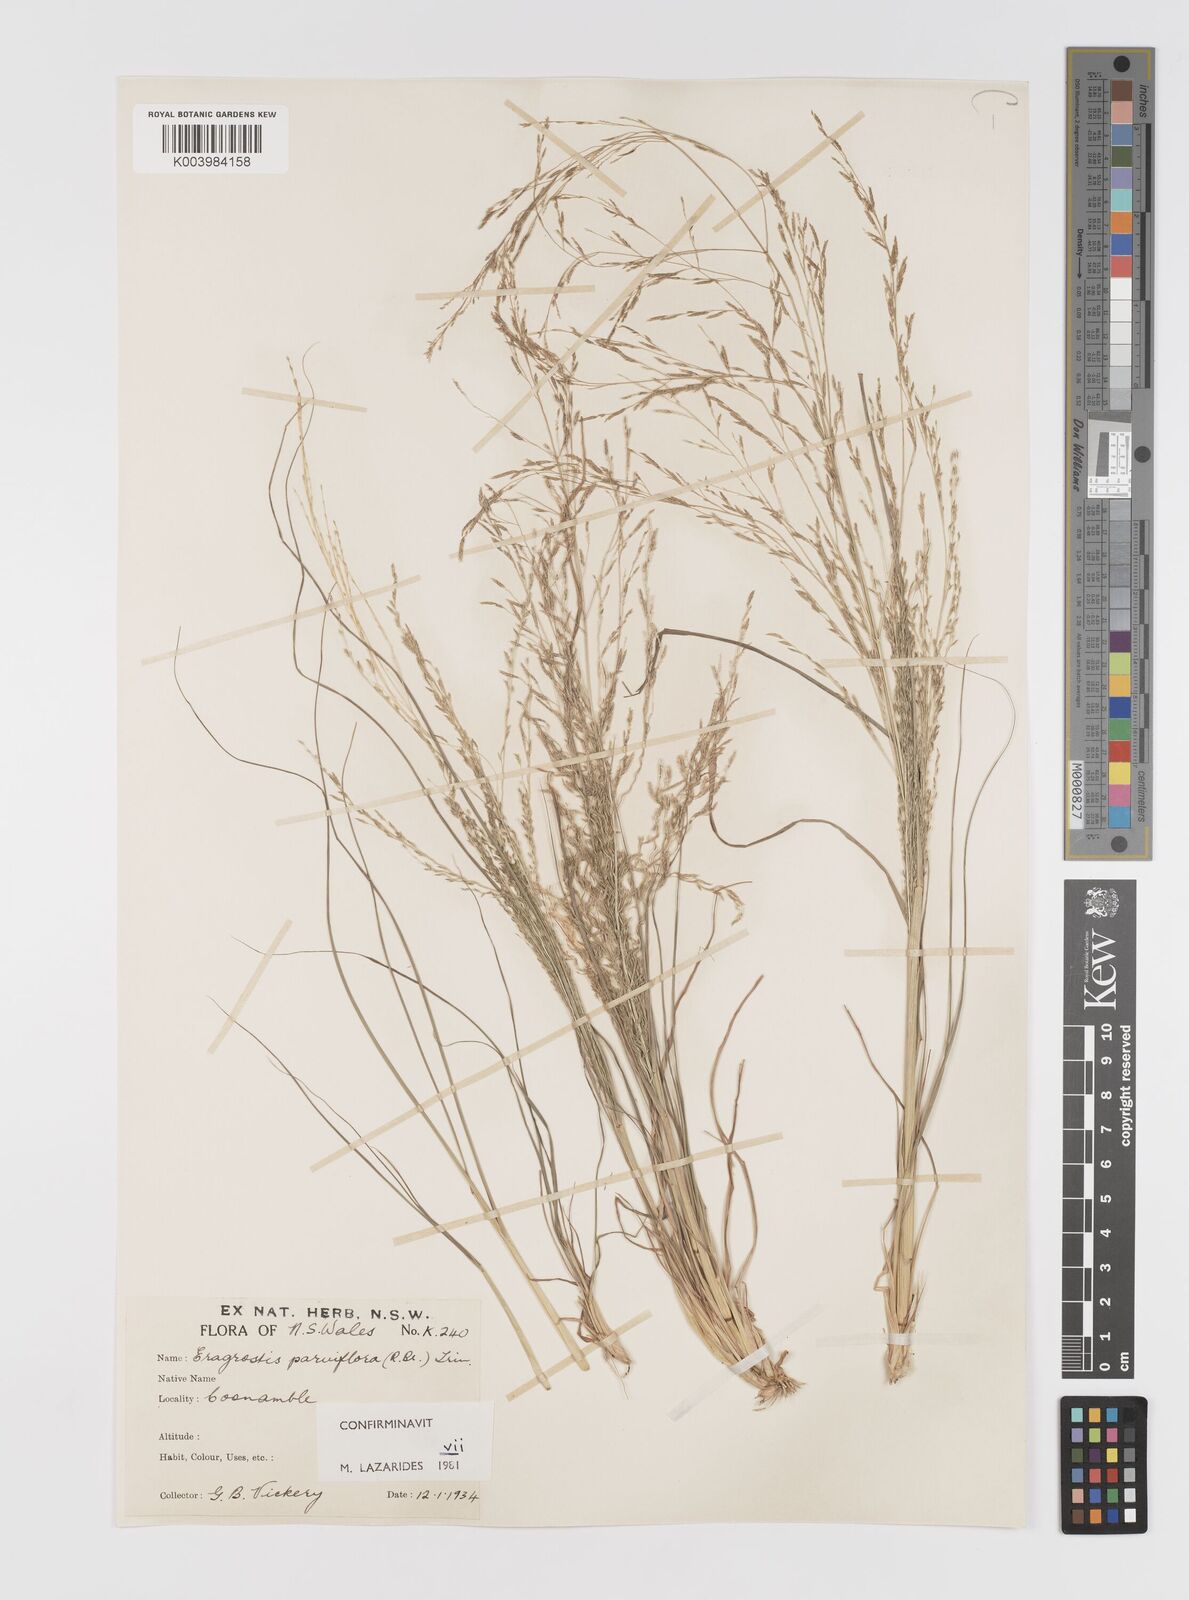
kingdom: Plantae
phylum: Tracheophyta
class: Liliopsida
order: Poales
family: Poaceae
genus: Eragrostis
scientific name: Eragrostis parviflora
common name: Weeping love-grass
